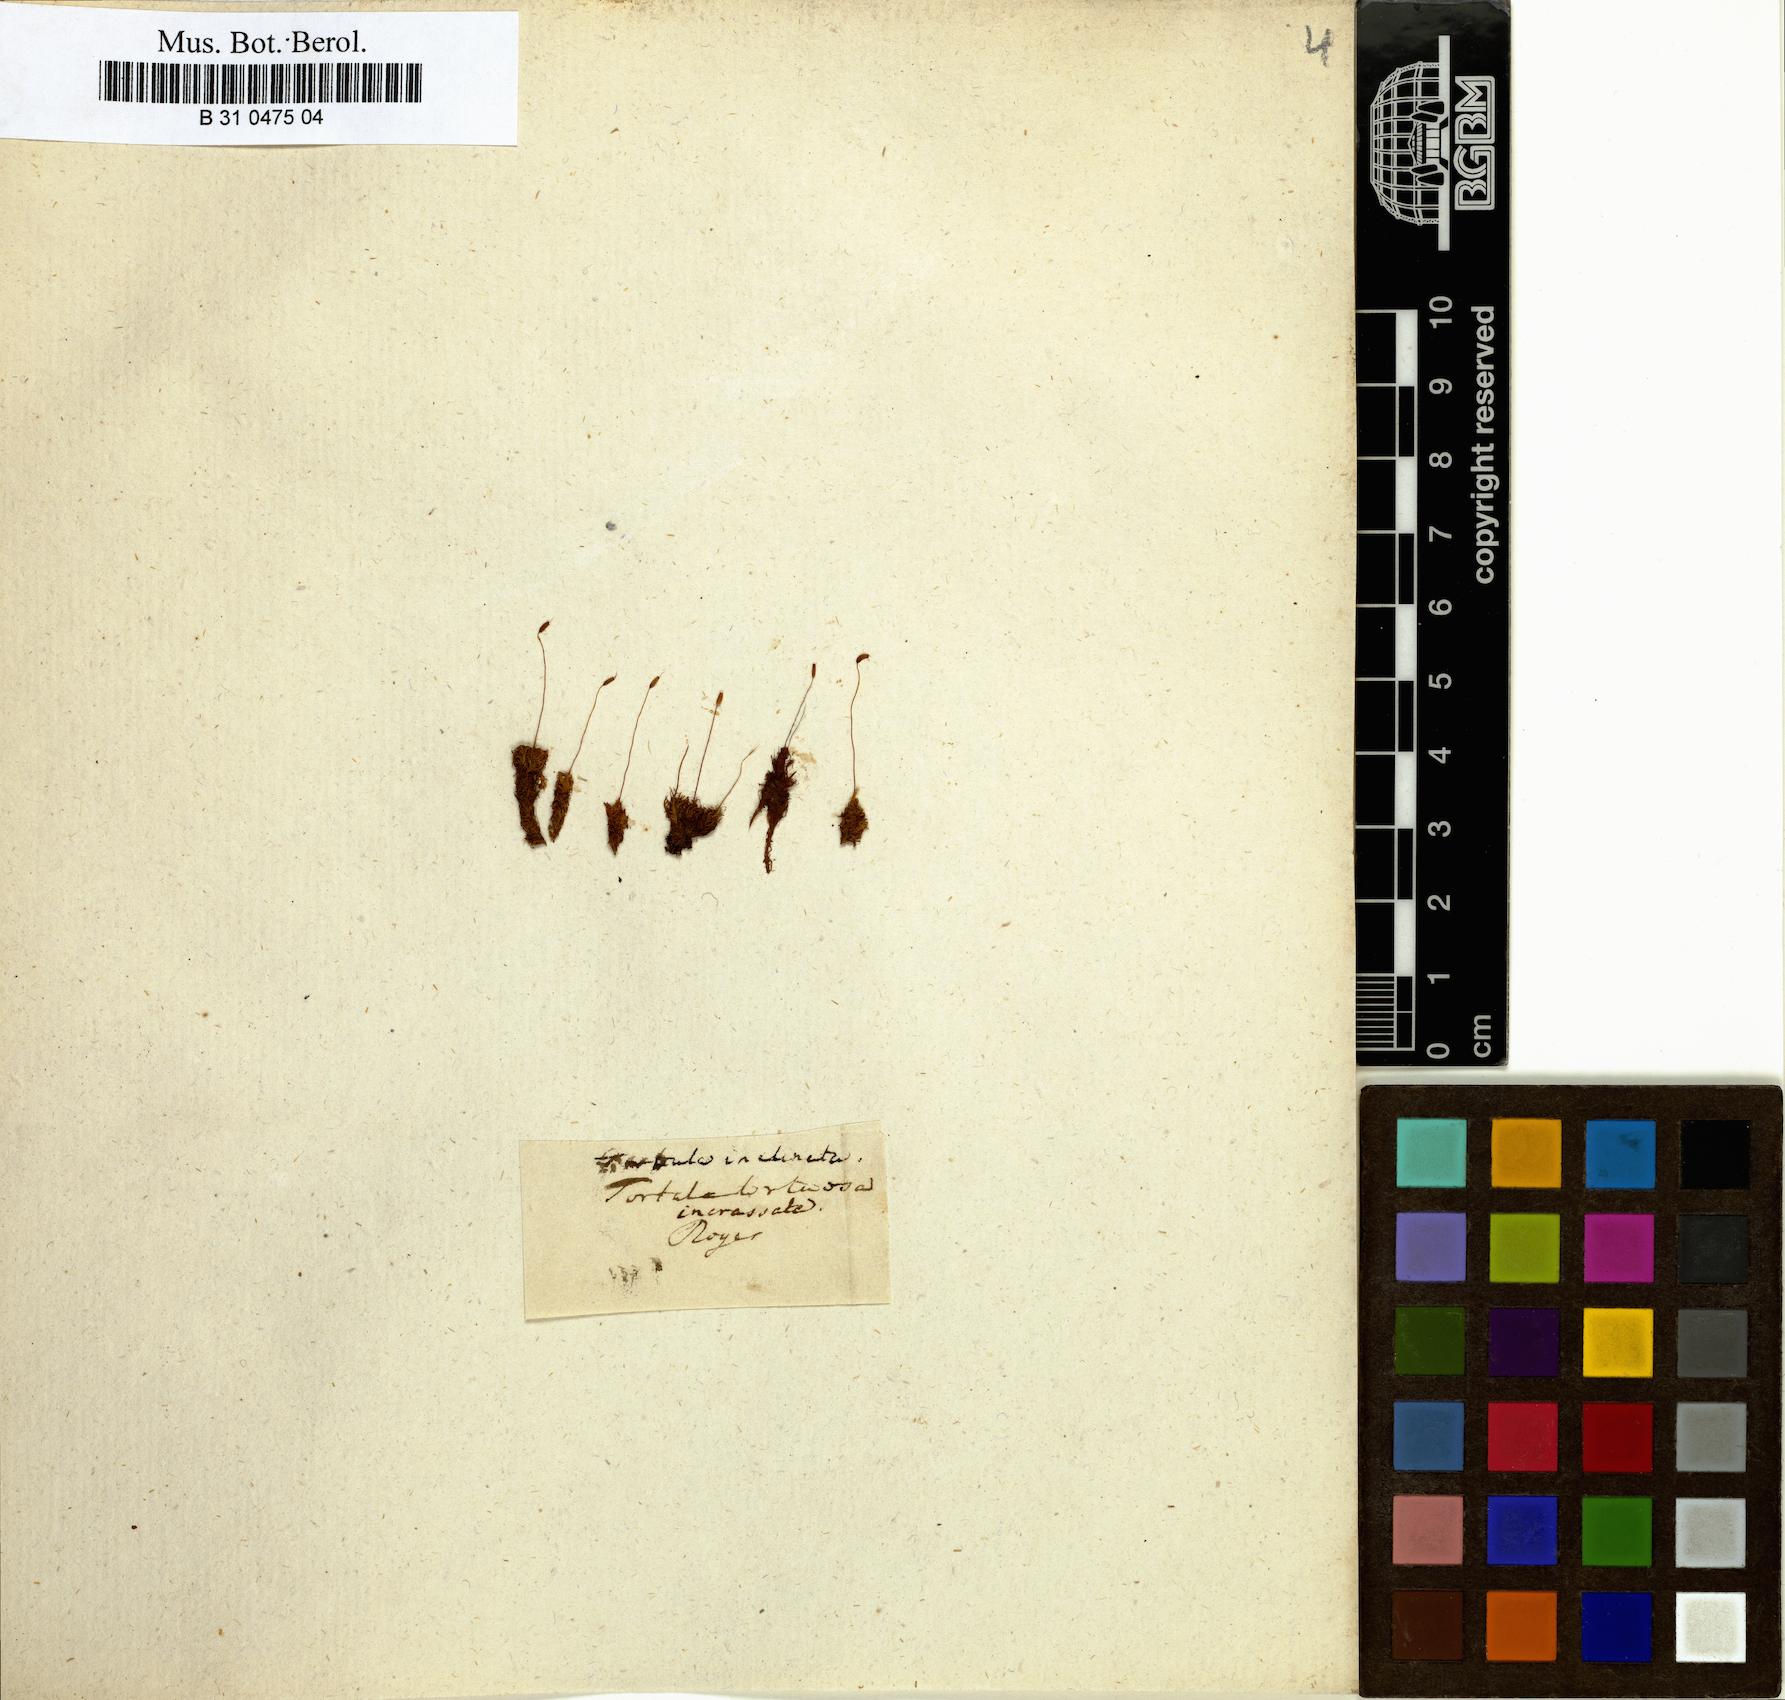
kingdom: Plantae
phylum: Bryophyta
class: Bryopsida
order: Pottiales
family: Pottiaceae
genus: Tortella
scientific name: Tortella tortuosa
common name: Frizzled crisp moss
